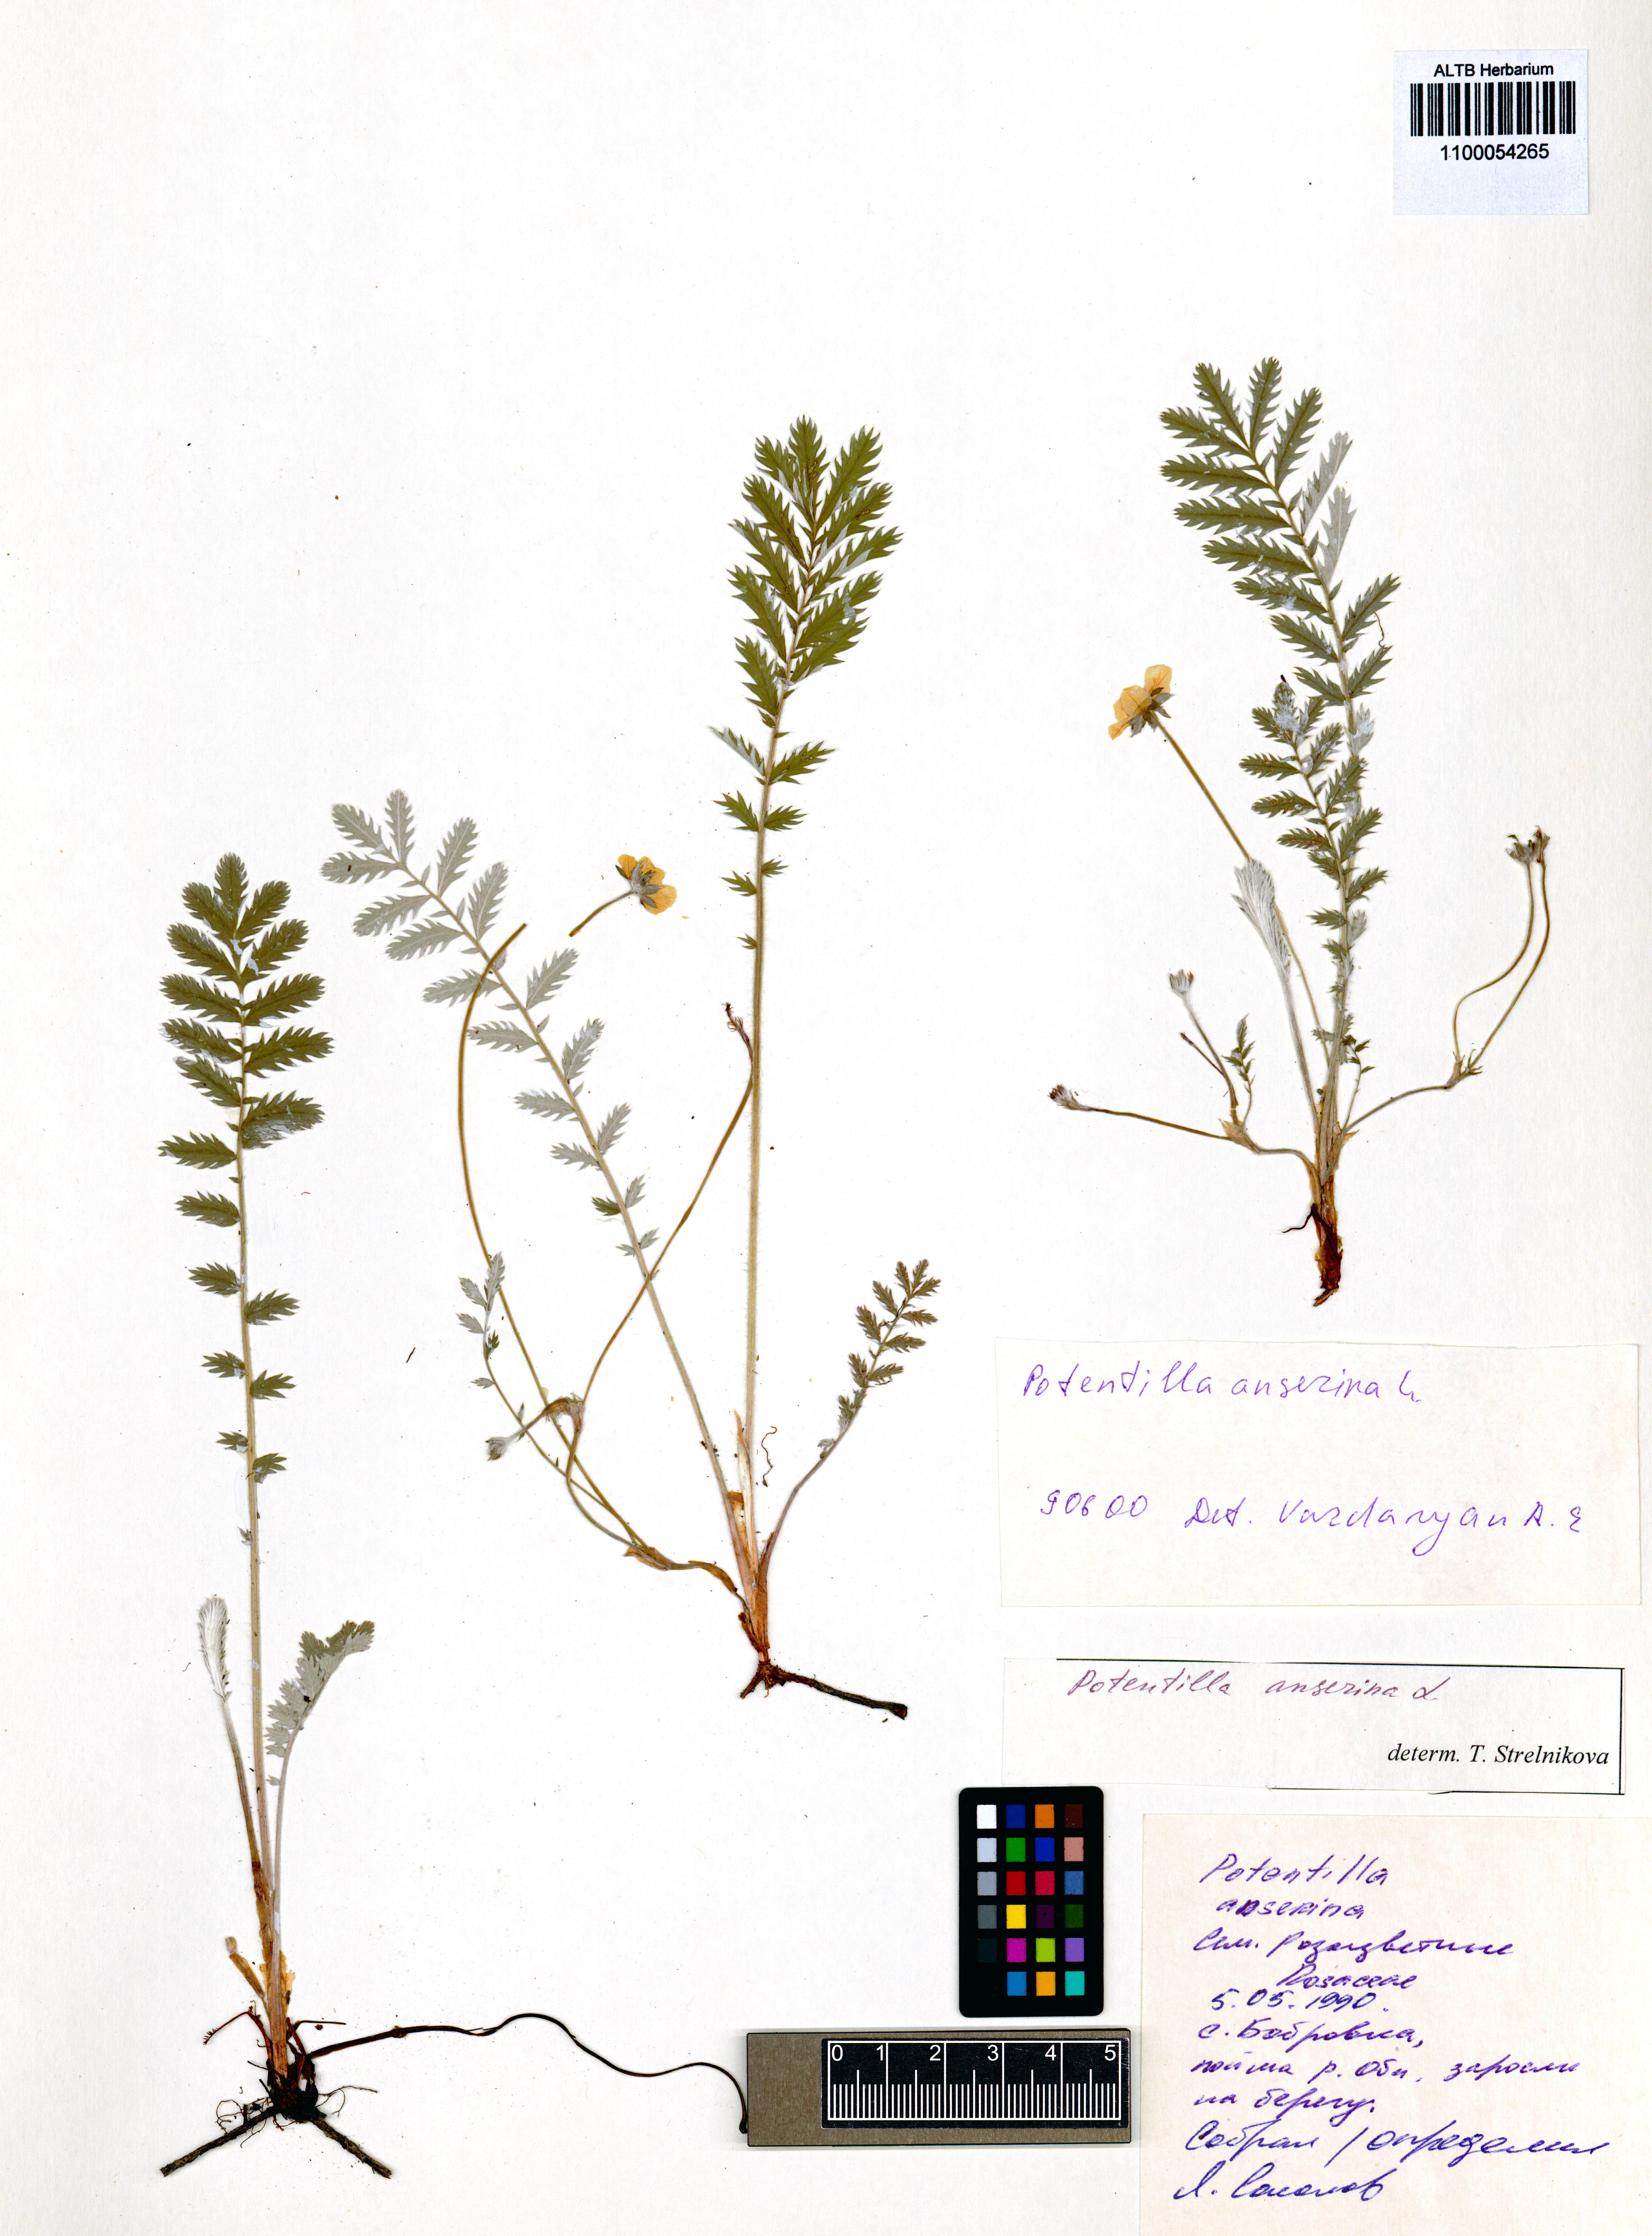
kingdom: Plantae
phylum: Tracheophyta
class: Magnoliopsida
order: Rosales
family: Rosaceae
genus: Argentina
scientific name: Argentina anserina
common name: Common silverweed
